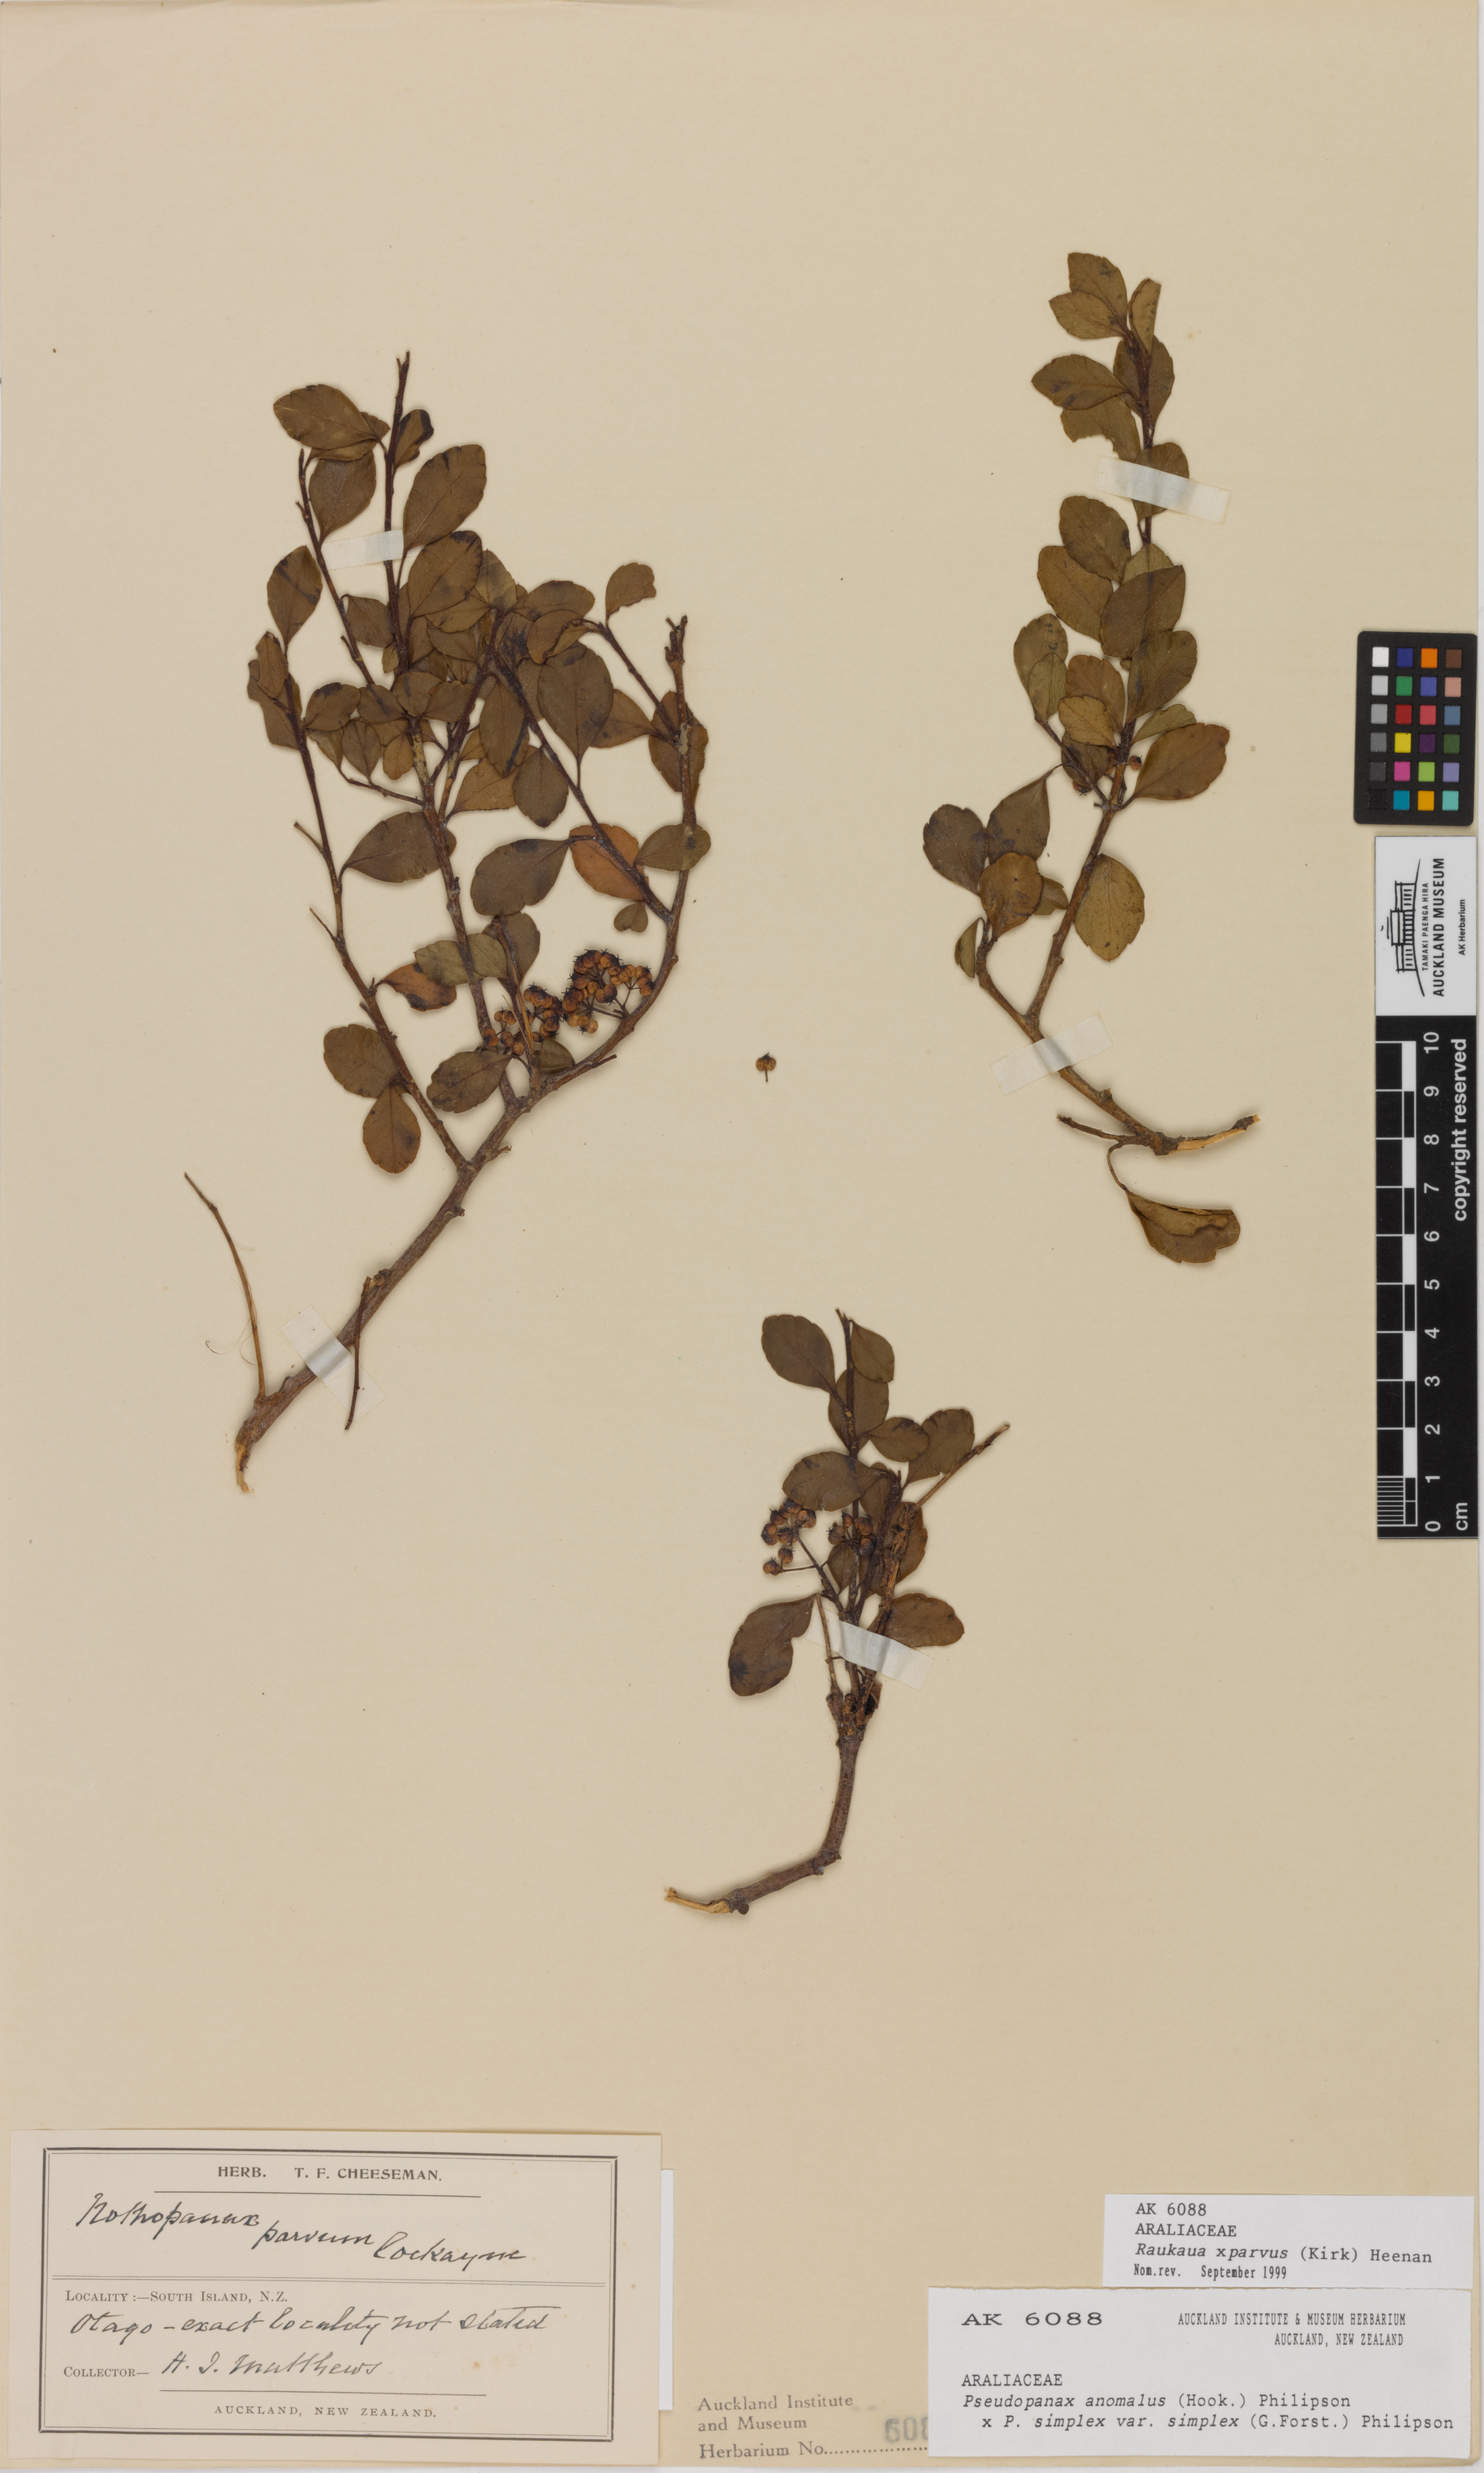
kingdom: Plantae
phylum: Tracheophyta
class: Magnoliopsida
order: Apiales
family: Araliaceae
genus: Raukaua
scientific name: Raukaua parvus
